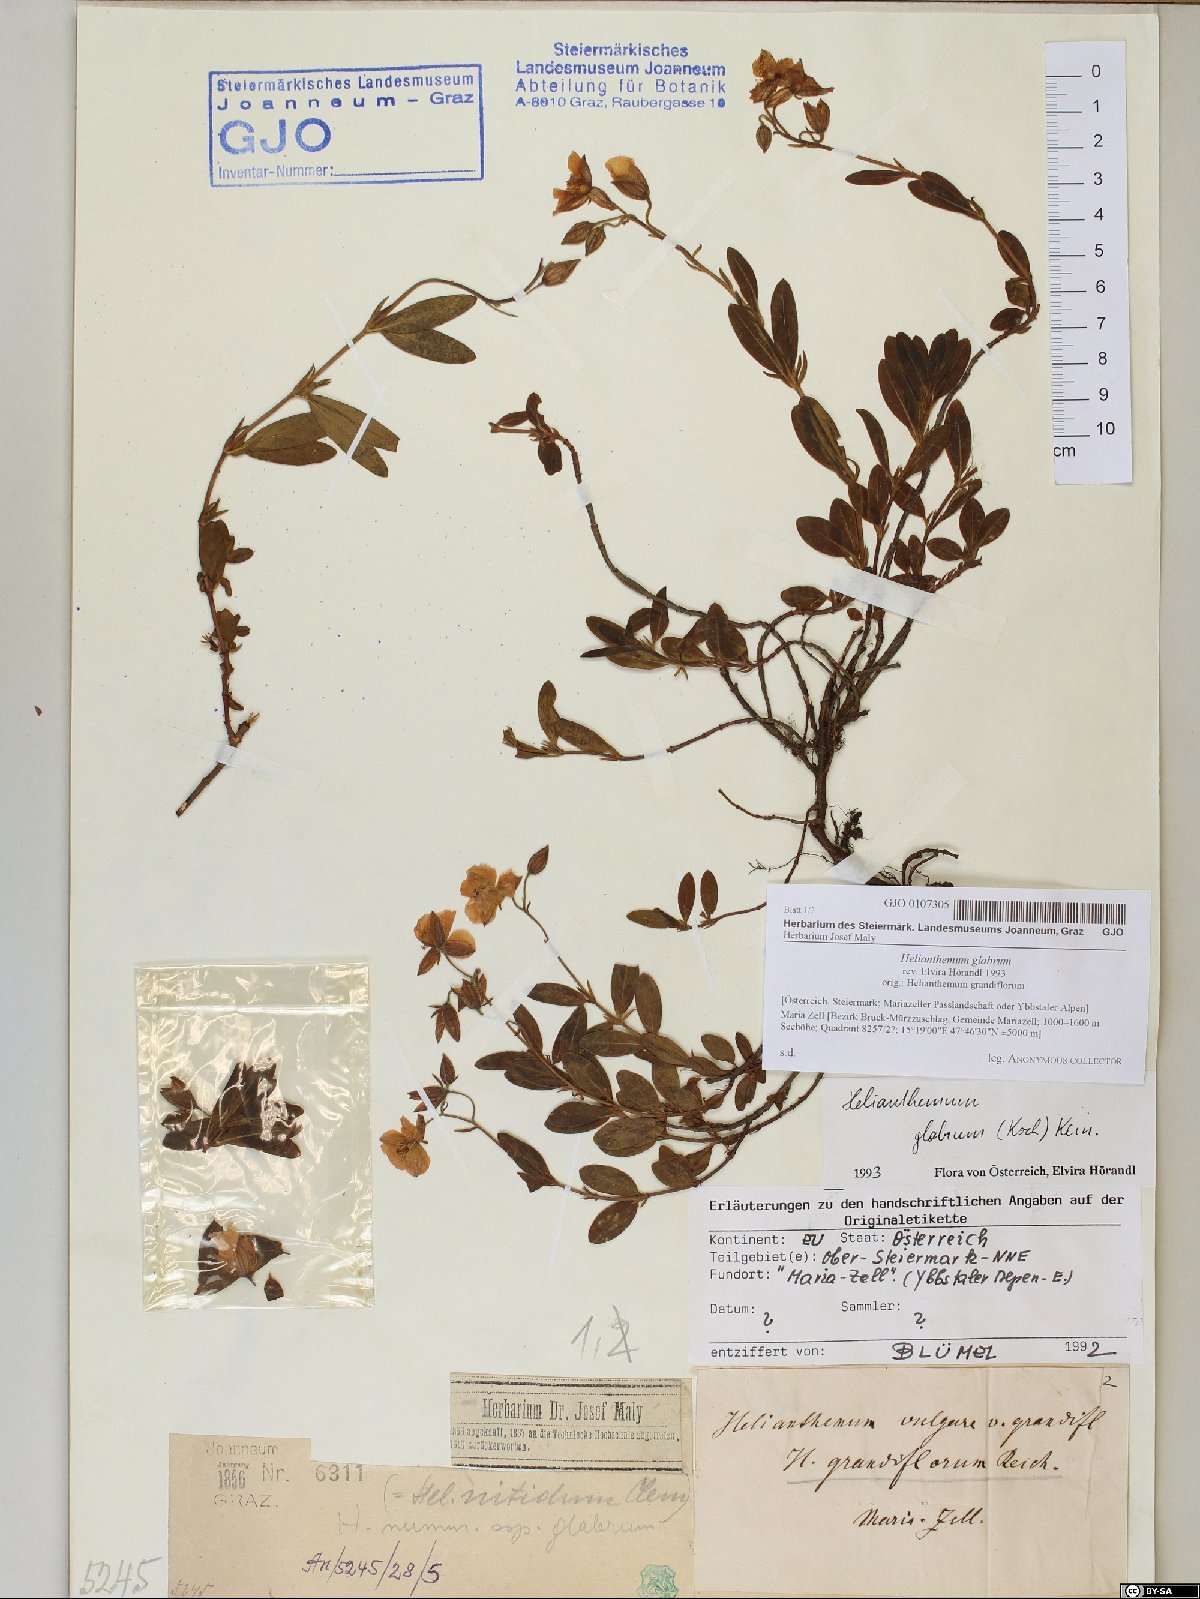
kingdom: Plantae
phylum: Tracheophyta
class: Magnoliopsida
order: Malvales
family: Cistaceae
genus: Helianthemum
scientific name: Helianthemum nummularium
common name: Common rock-rose
